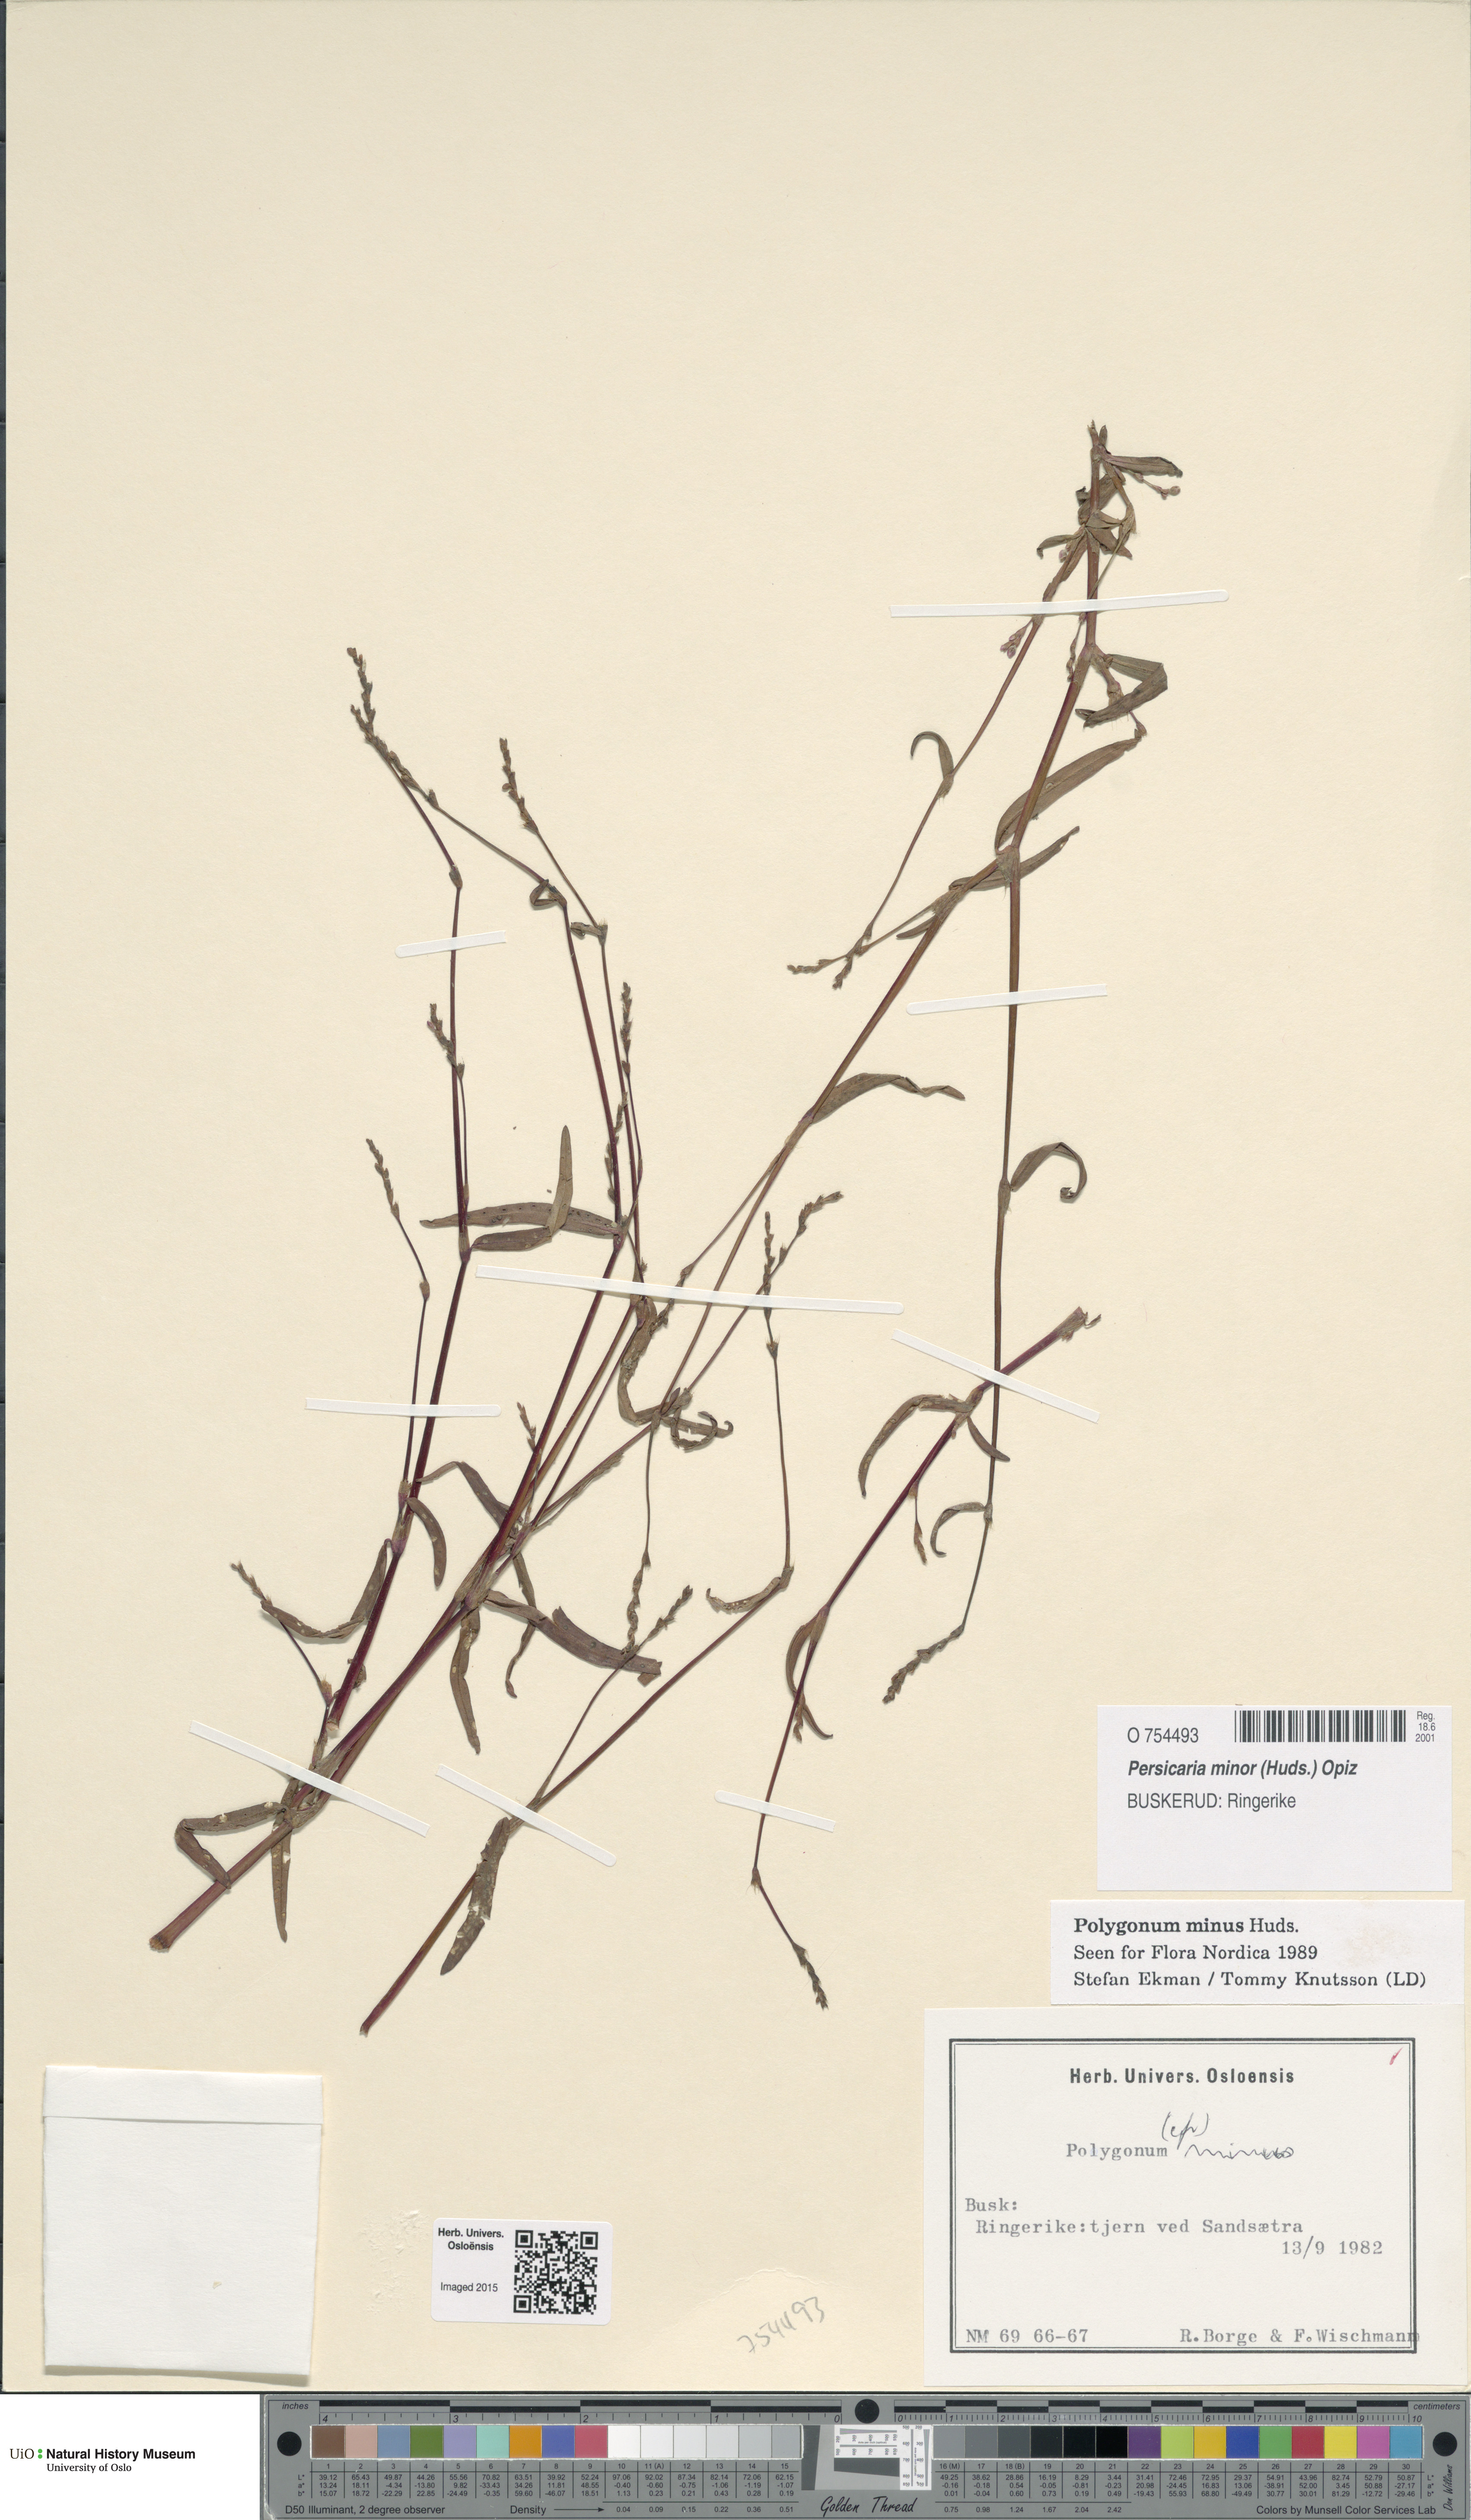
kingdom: Plantae
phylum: Tracheophyta
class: Magnoliopsida
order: Caryophyllales
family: Polygonaceae
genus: Persicaria
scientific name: Persicaria minor
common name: Small water-pepper
